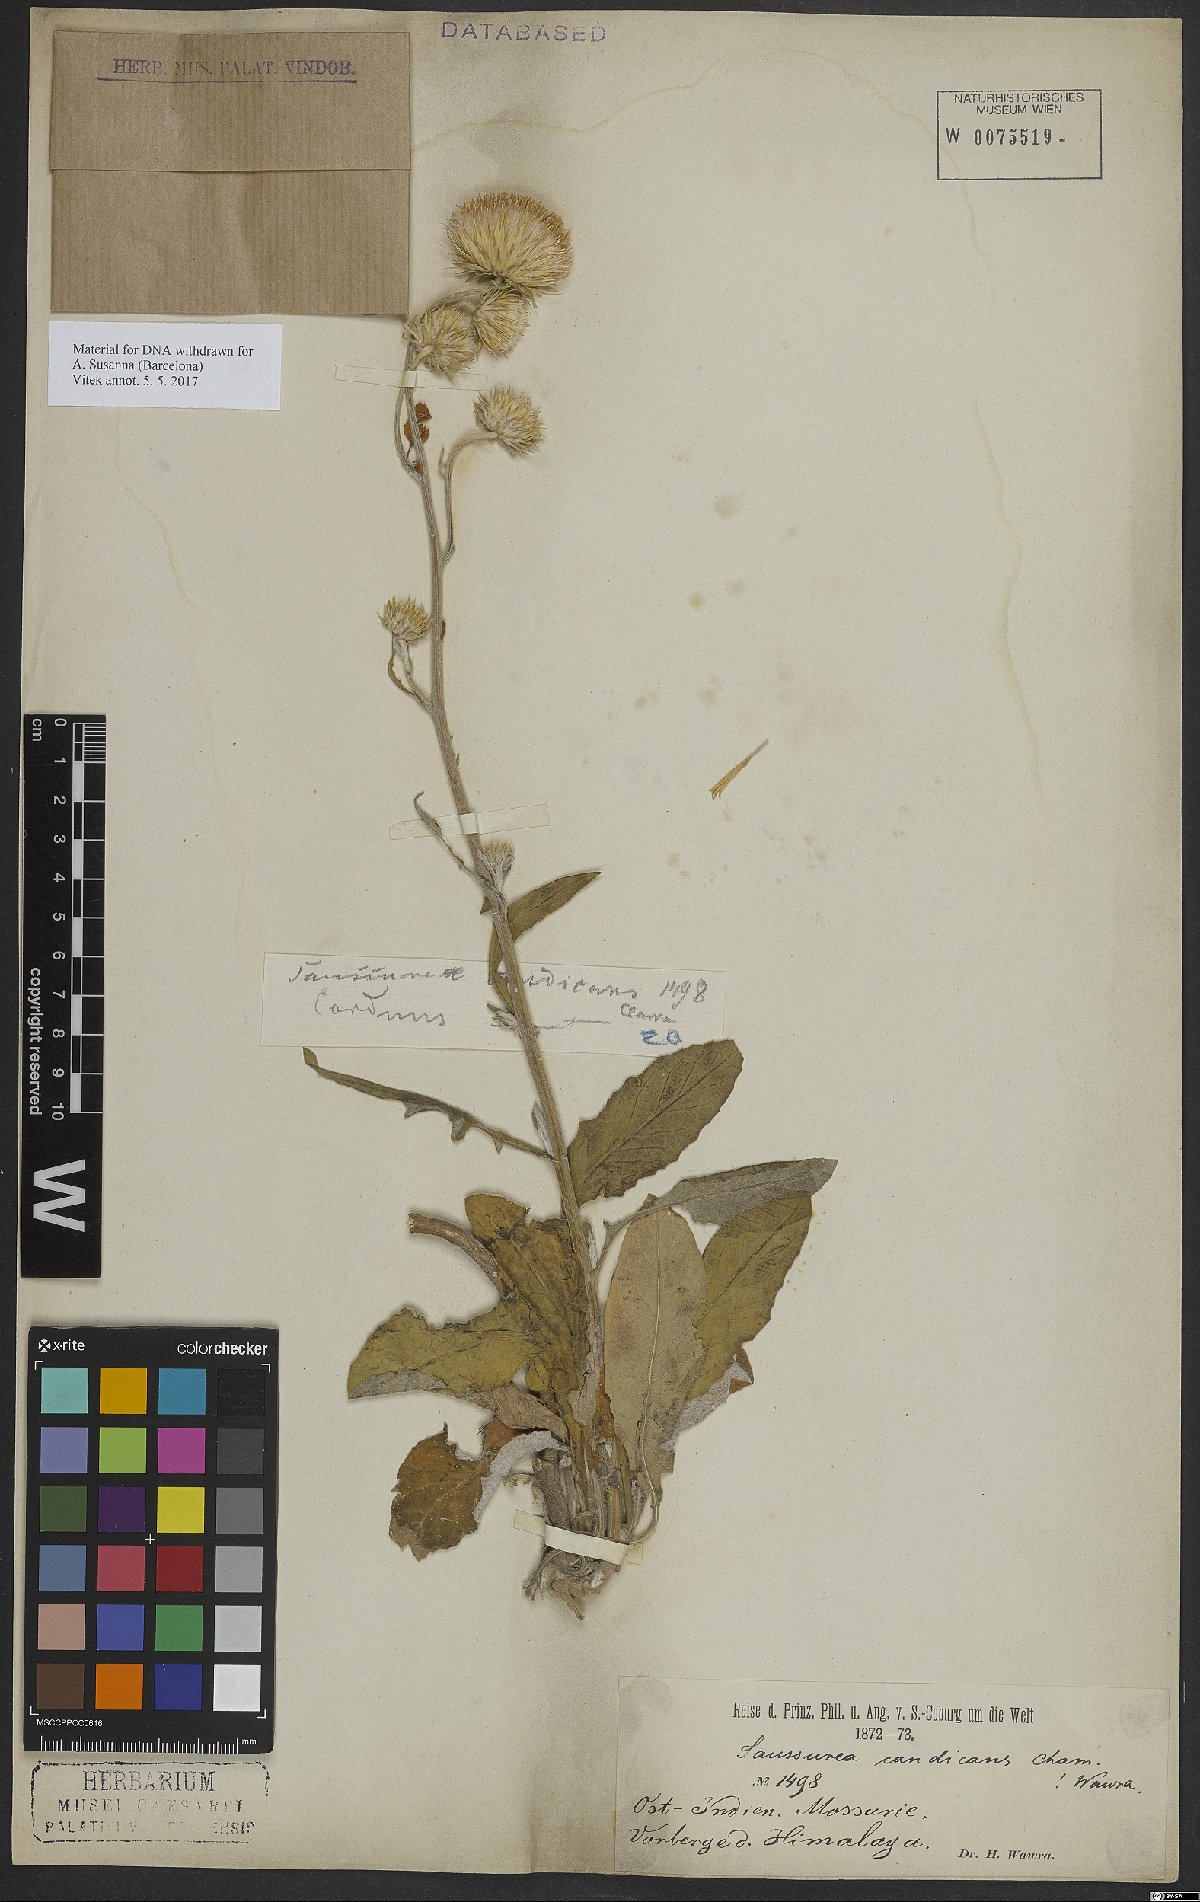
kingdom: Plantae
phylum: Tracheophyta
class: Magnoliopsida
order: Asterales
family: Asteraceae
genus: Jurinea
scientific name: Jurinea heteromalla
